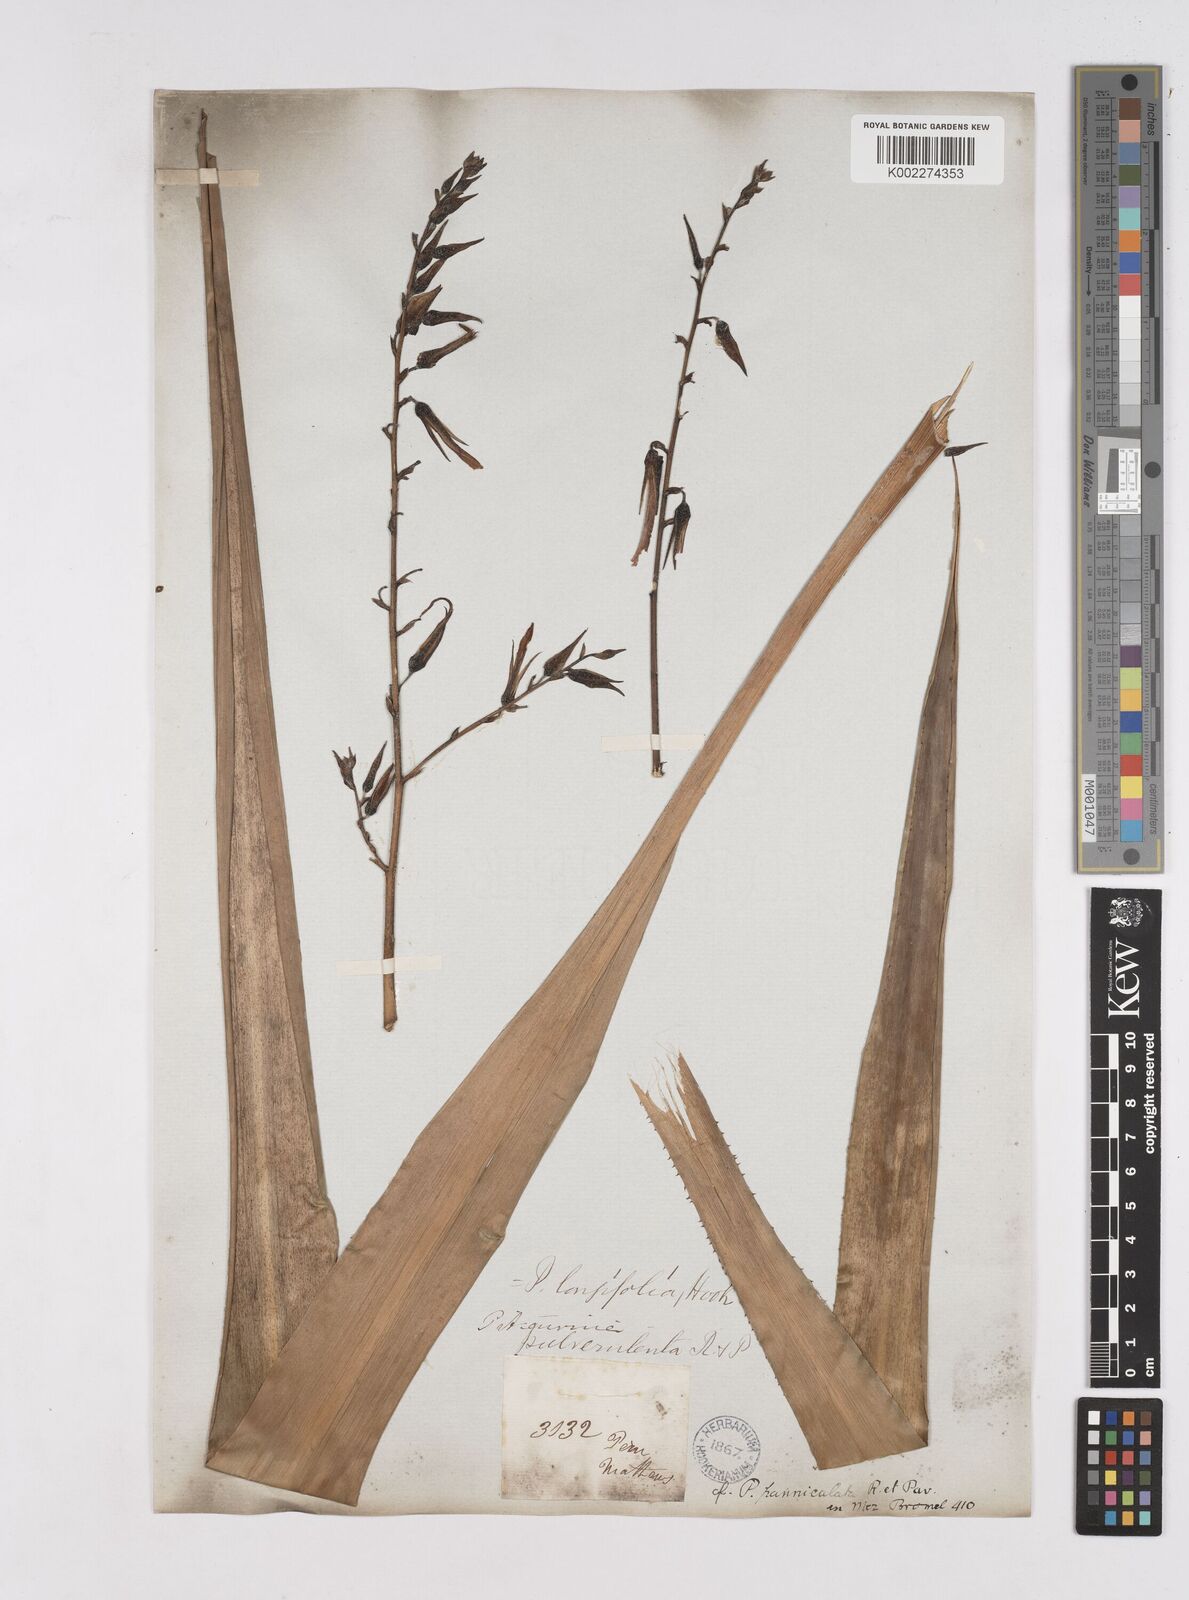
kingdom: Plantae
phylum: Tracheophyta
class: Liliopsida
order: Poales
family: Bromeliaceae
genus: Pitcairnia
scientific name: Pitcairnia paniculata
